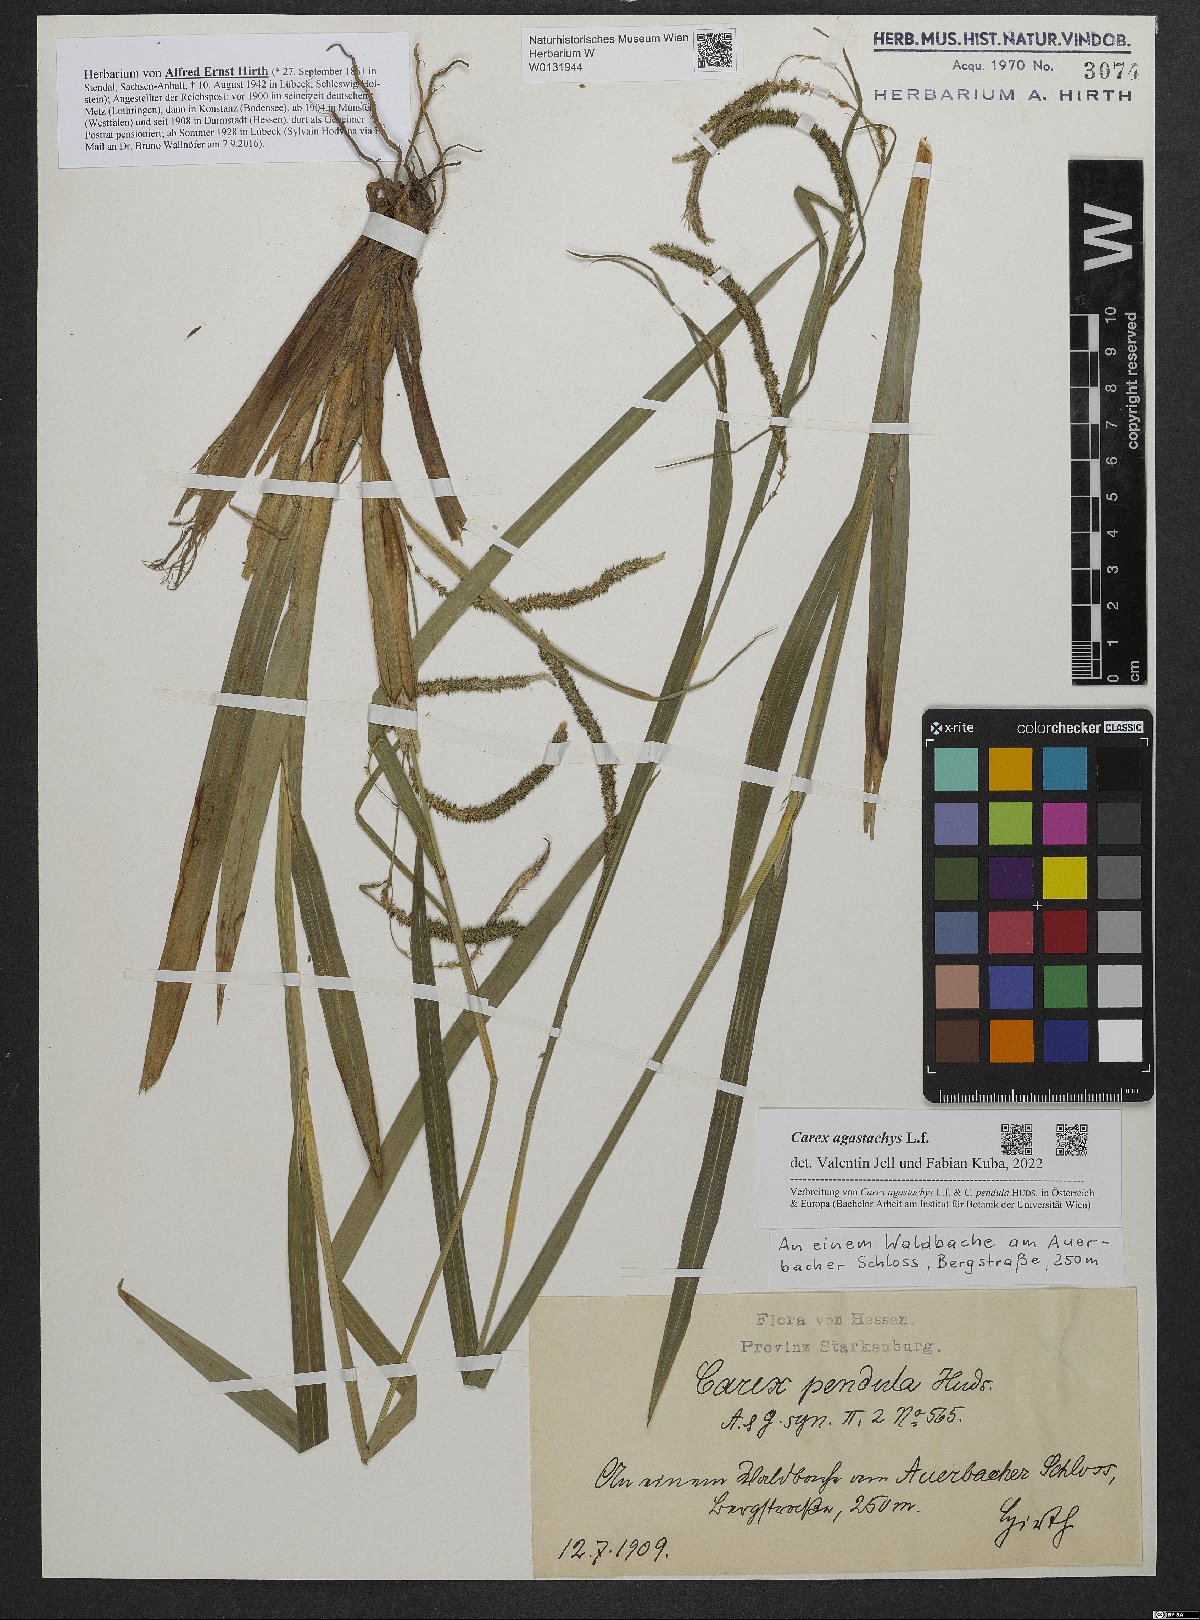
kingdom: Plantae
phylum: Tracheophyta
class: Liliopsida
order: Poales
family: Cyperaceae
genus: Carex
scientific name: Carex agastachys
